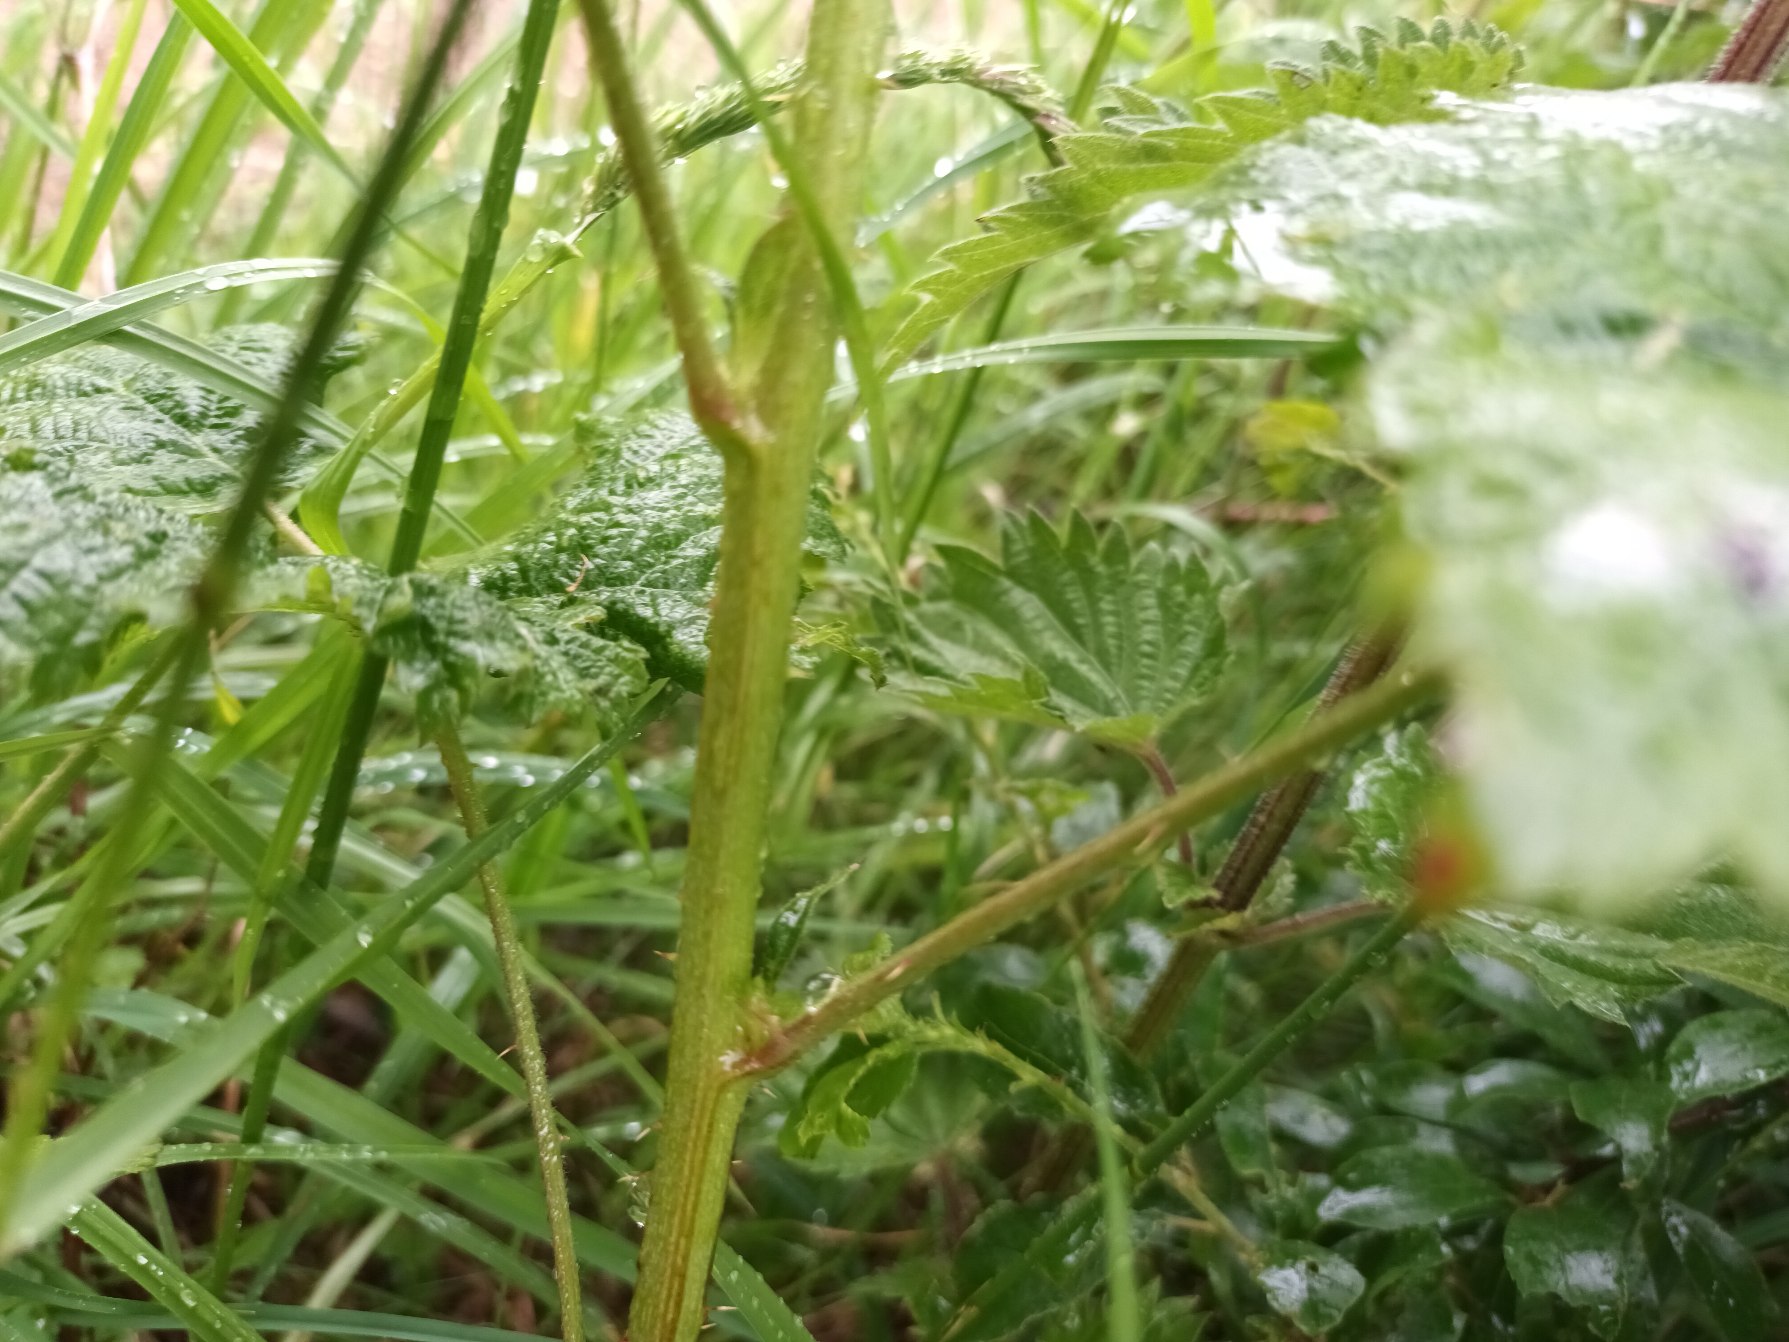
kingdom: Plantae
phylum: Tracheophyta
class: Magnoliopsida
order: Rosales
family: Rosaceae
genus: Rubus
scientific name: Rubus mortensenii
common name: Lindbloms hasselbrombær
